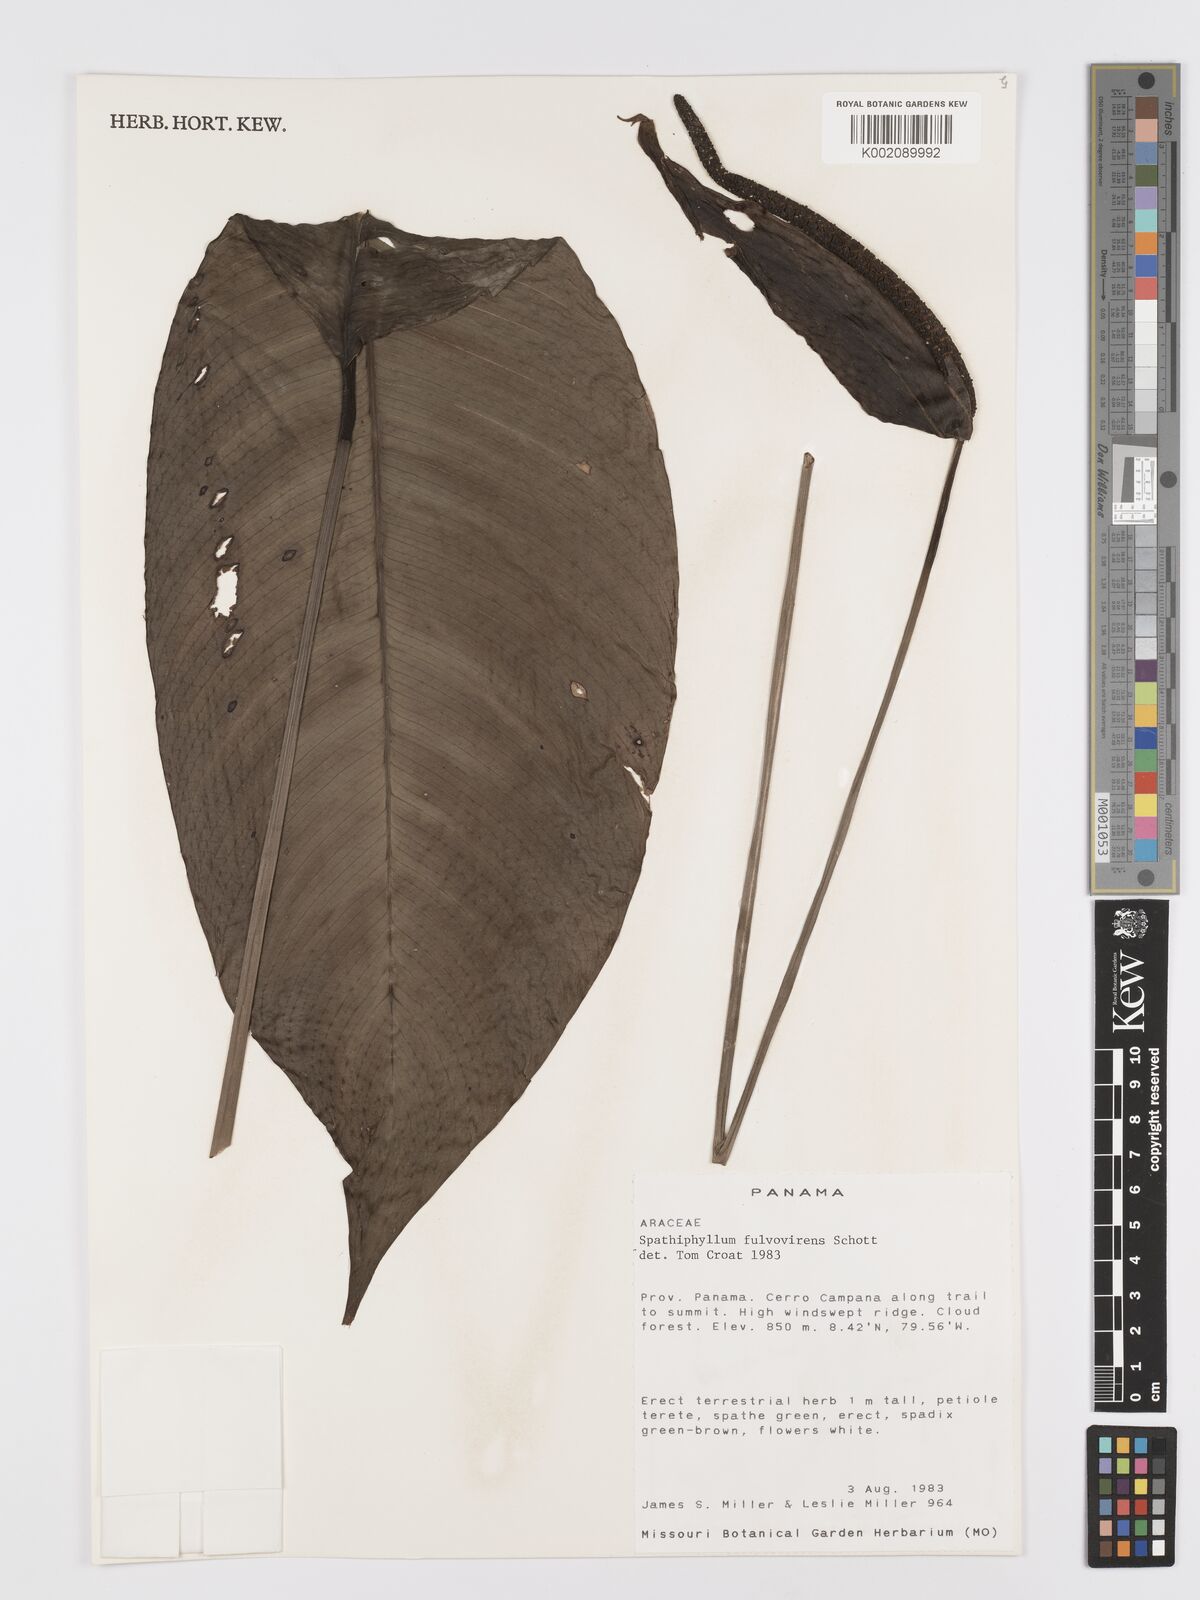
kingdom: Plantae
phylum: Tracheophyta
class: Liliopsida
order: Alismatales
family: Araceae
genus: Spathiphyllum
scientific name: Spathiphyllum fulvovirens
